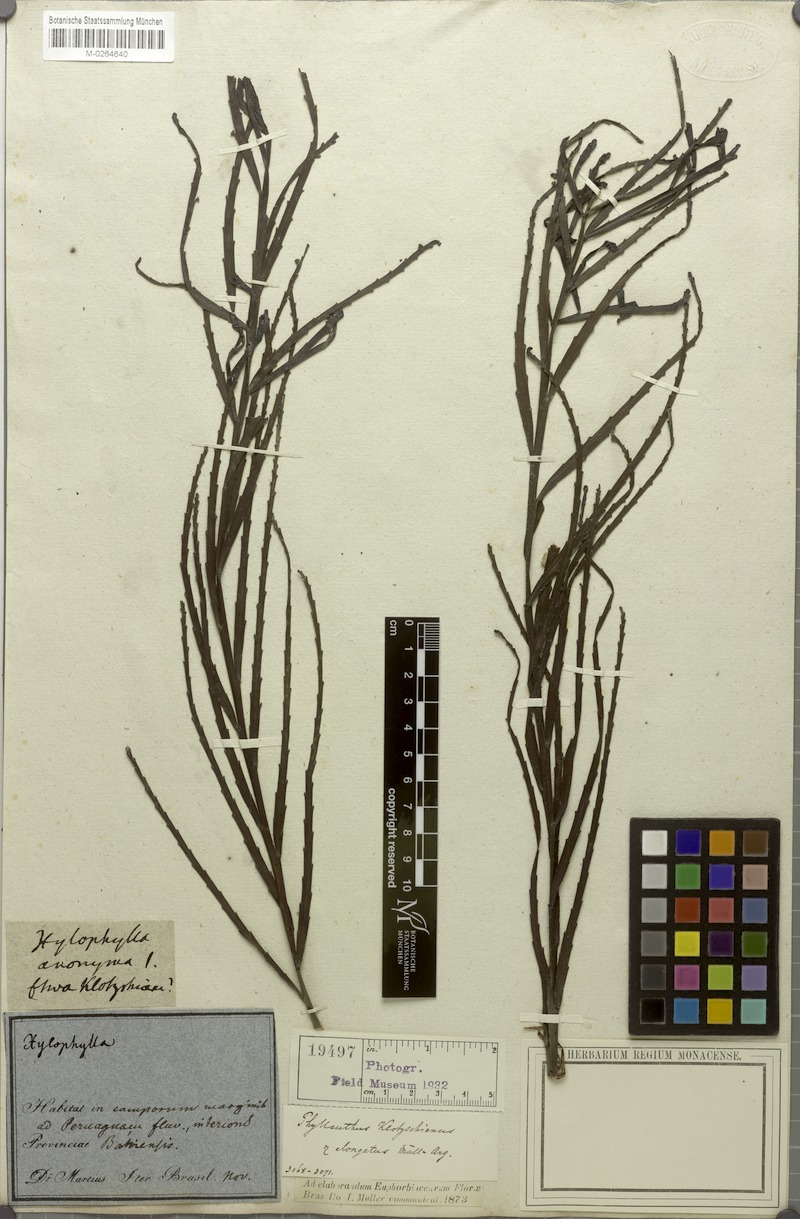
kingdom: Plantae
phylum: Tracheophyta
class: Magnoliopsida
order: Malpighiales
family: Phyllanthaceae
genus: Phyllanthus
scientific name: Phyllanthus robustus
